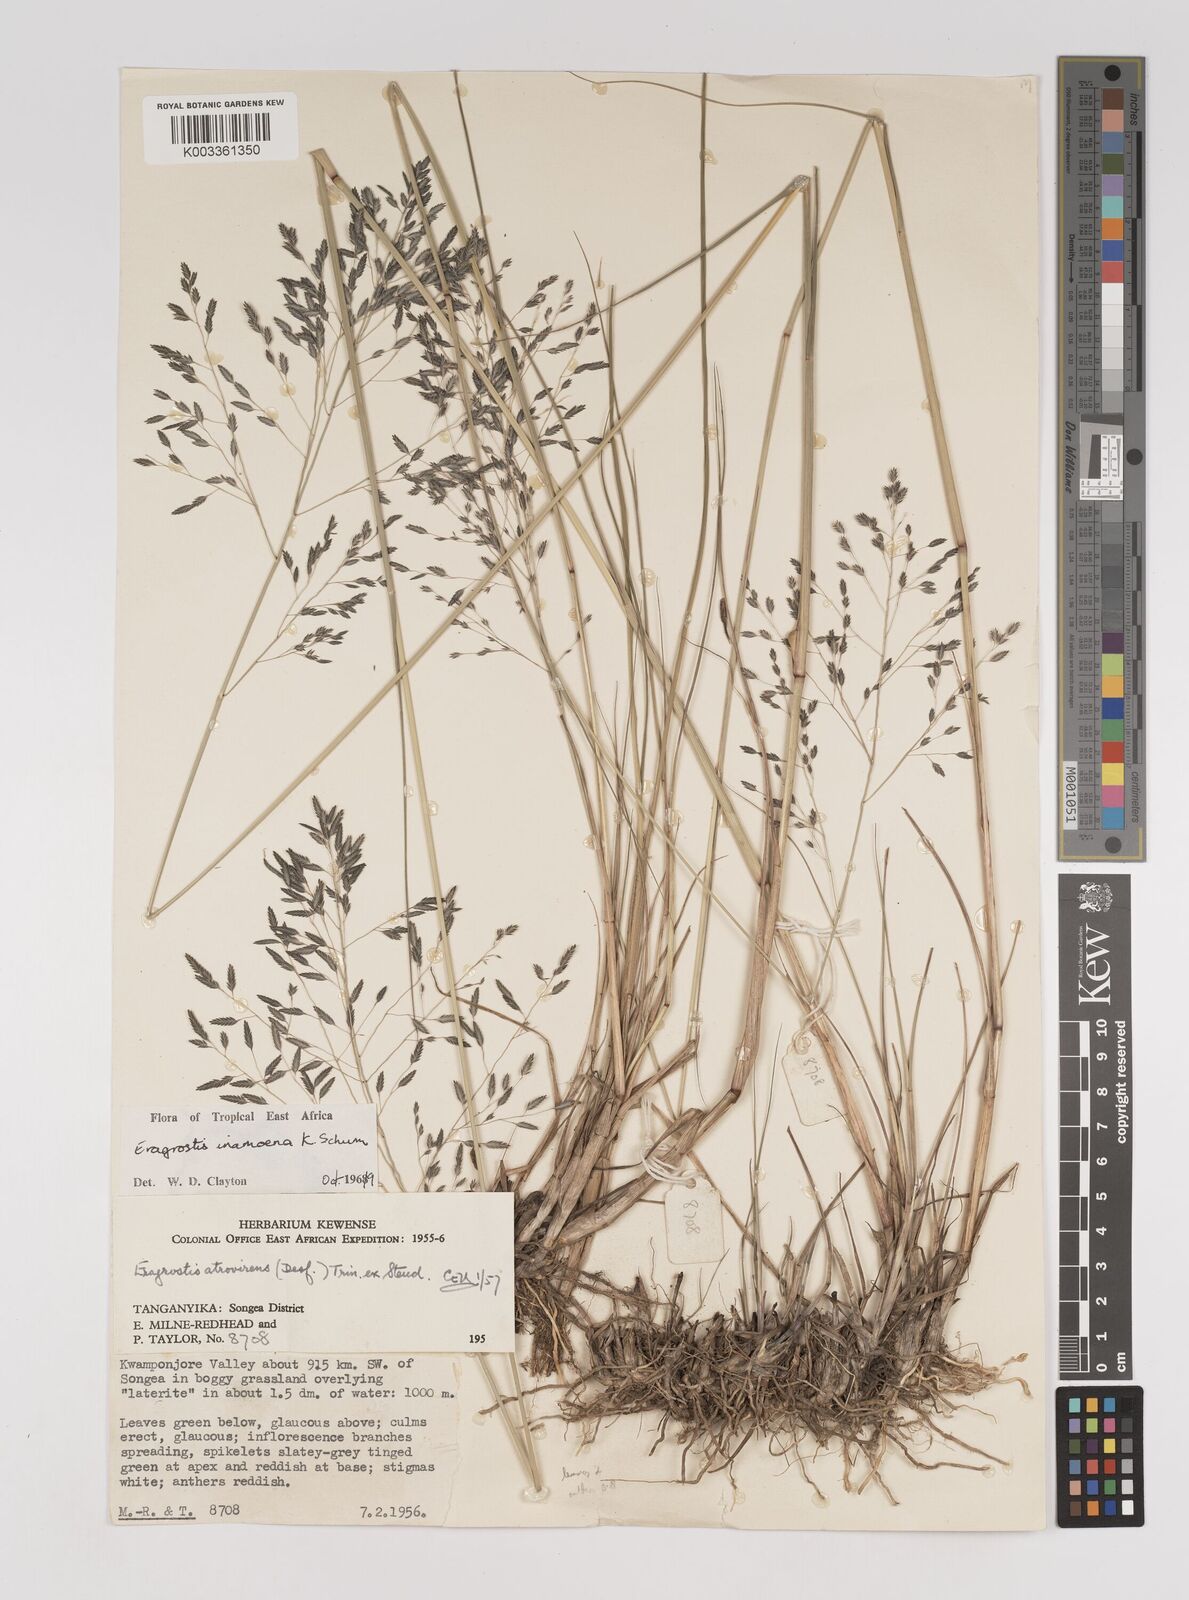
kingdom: Plantae
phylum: Tracheophyta
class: Liliopsida
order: Poales
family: Poaceae
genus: Eragrostis
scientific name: Eragrostis inamoena
